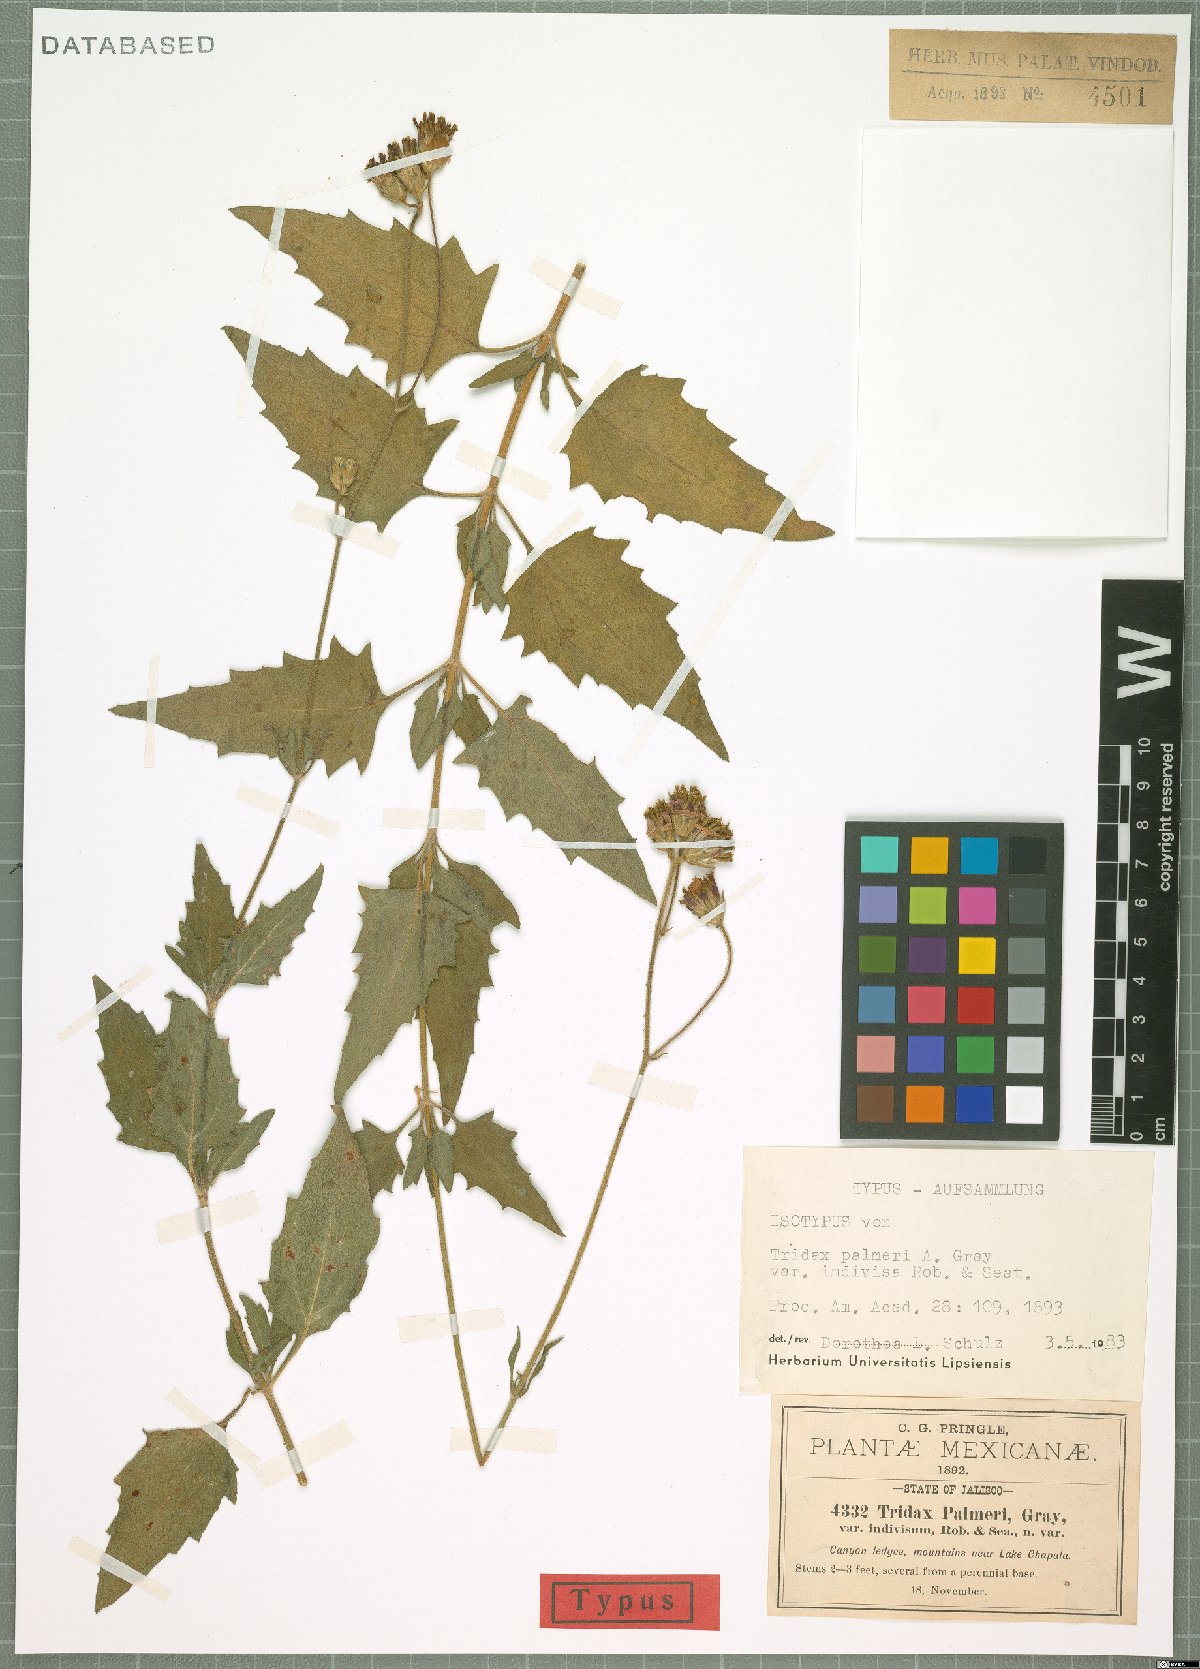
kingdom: Plantae
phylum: Tracheophyta
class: Magnoliopsida
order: Asterales
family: Asteraceae
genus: Tridax
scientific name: Tridax palmeri
